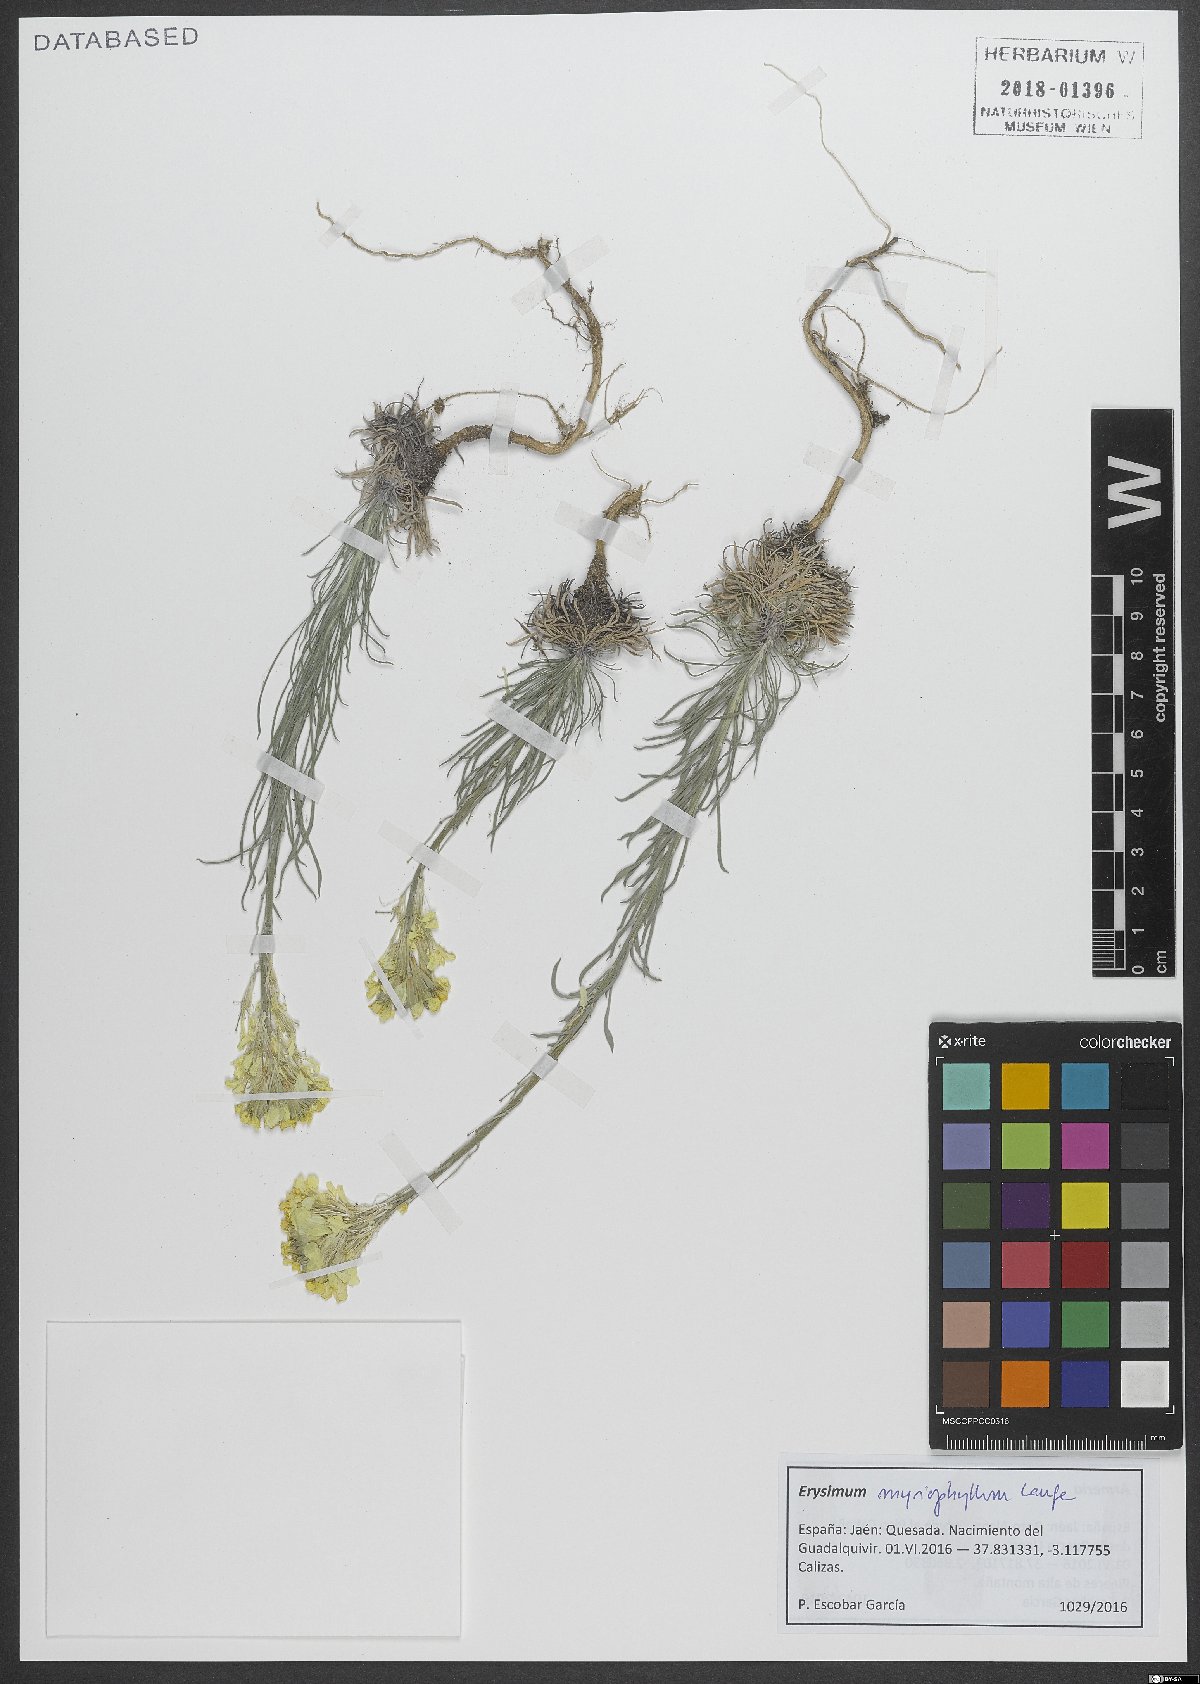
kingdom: Plantae
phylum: Tracheophyta
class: Magnoliopsida
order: Brassicales
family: Brassicaceae
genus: Erysimum
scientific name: Erysimum myriophyllum
